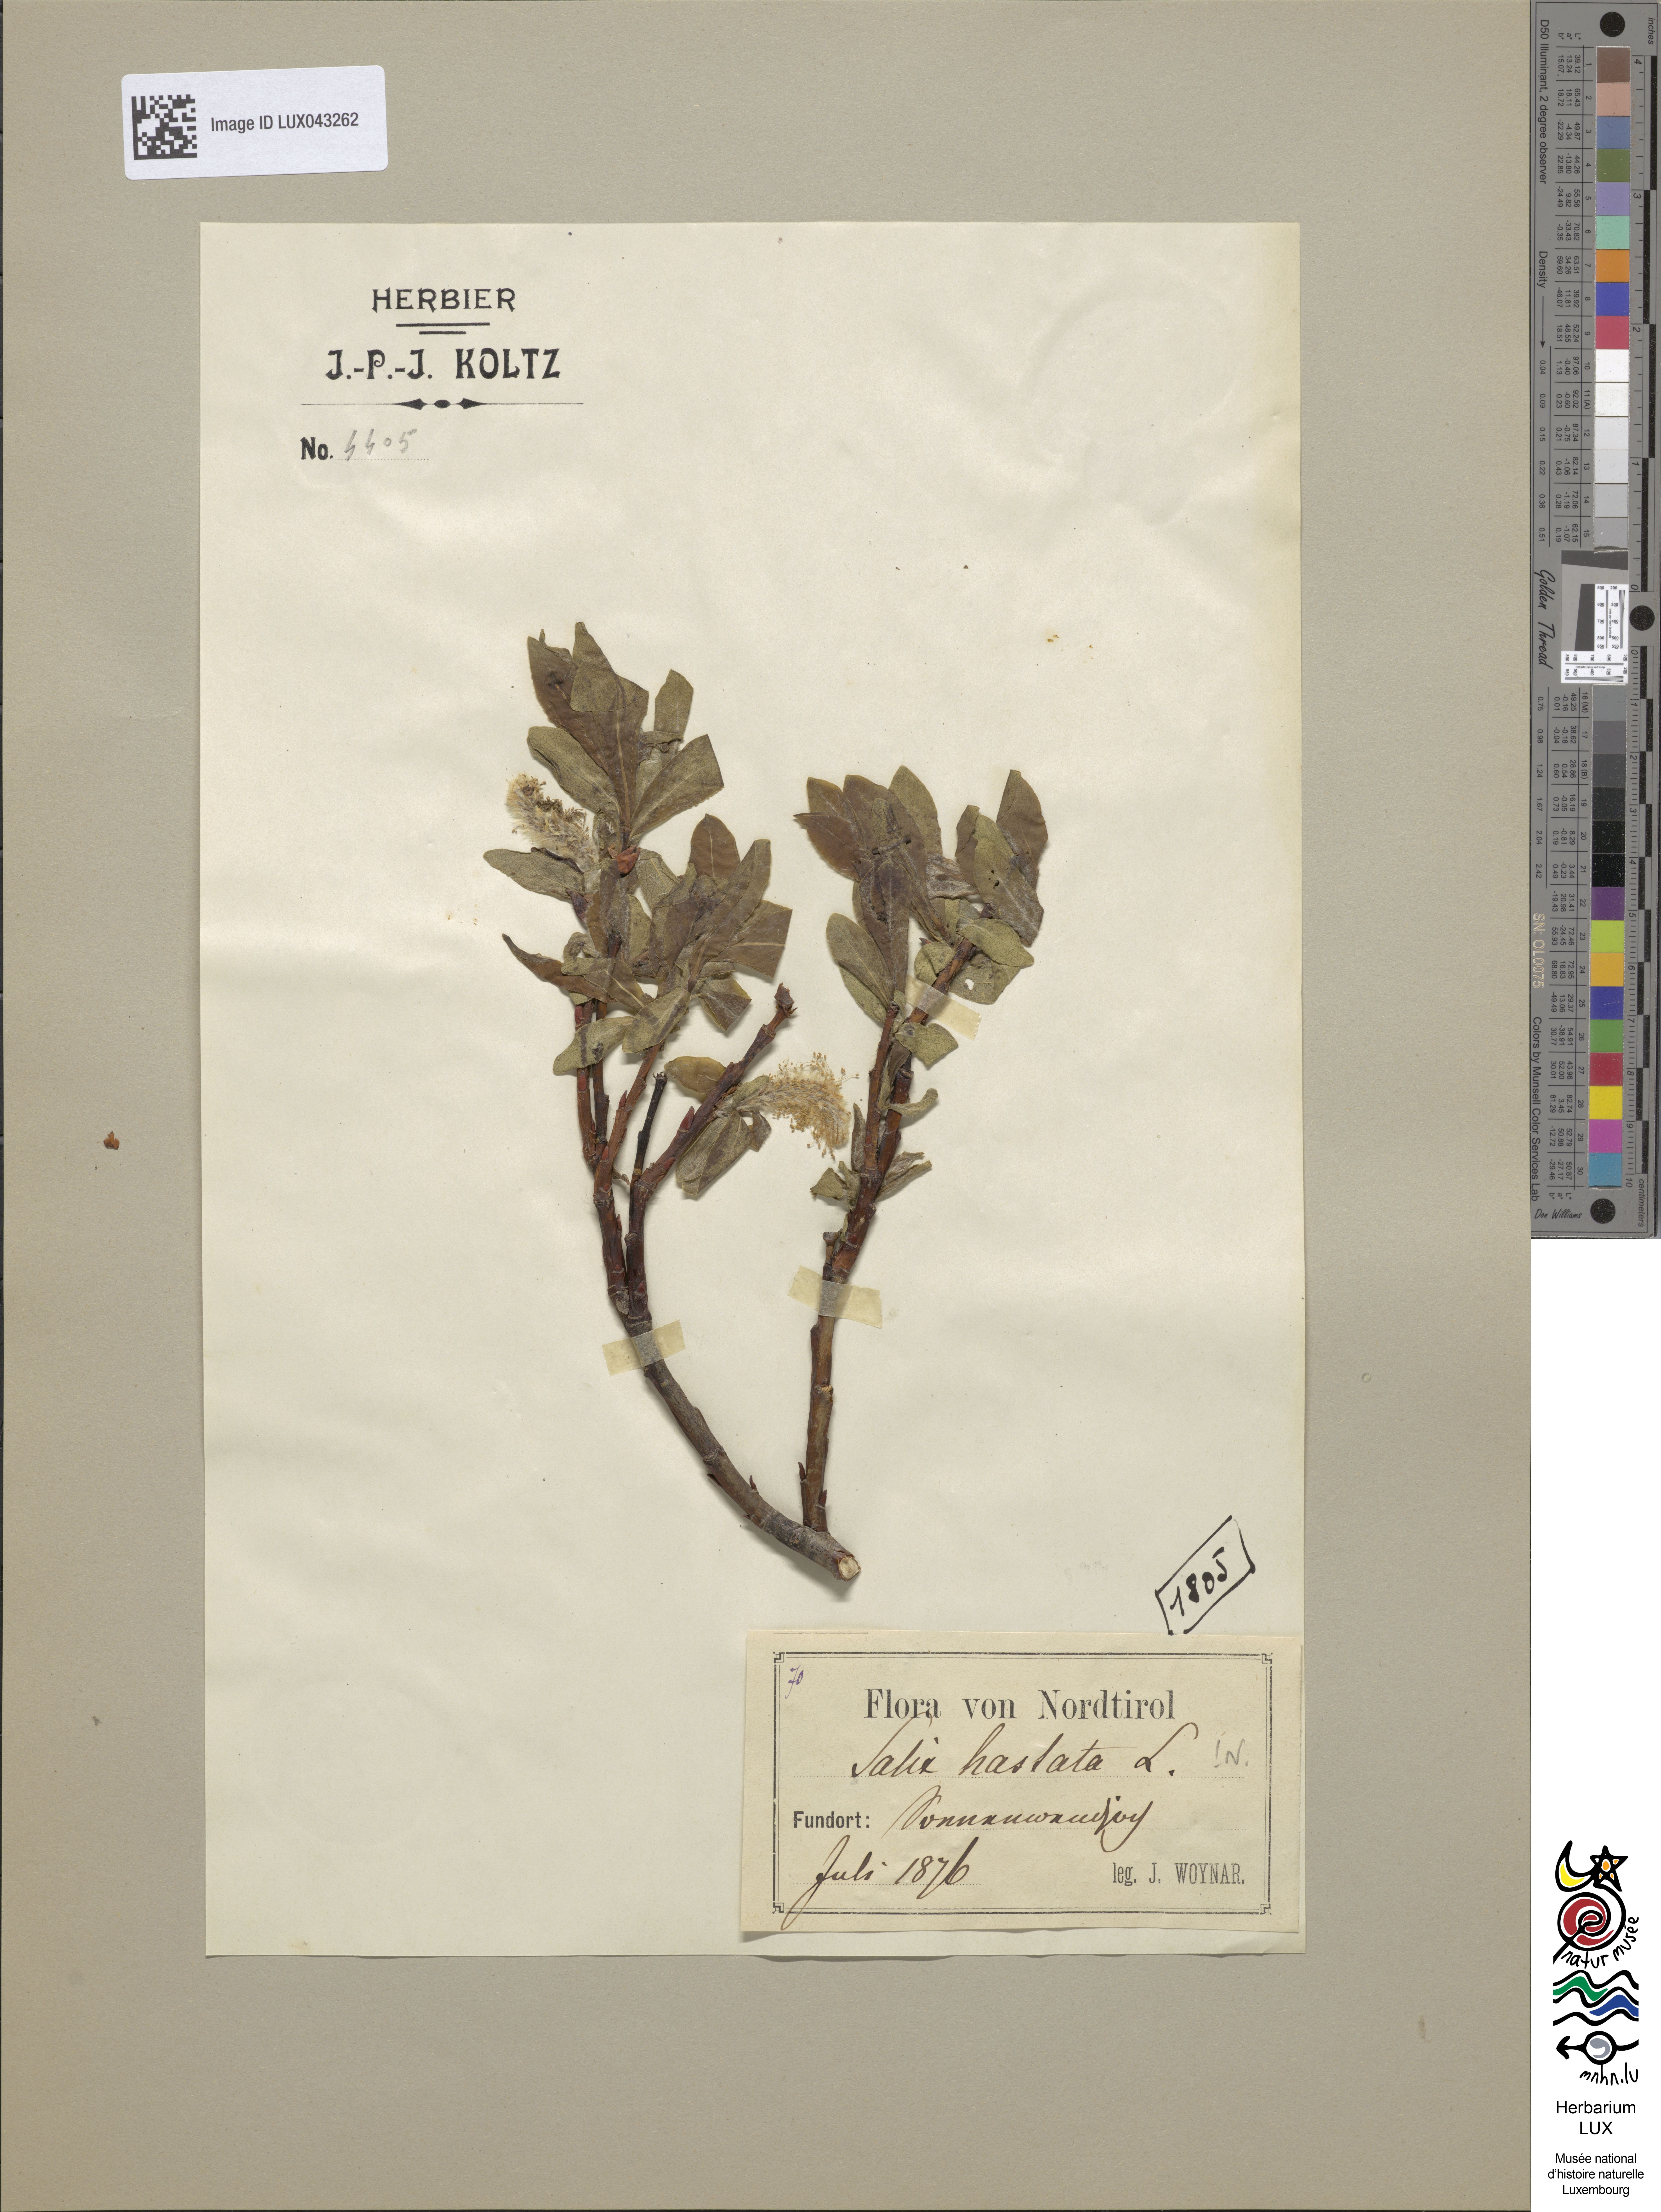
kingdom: Plantae
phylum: Tracheophyta
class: Magnoliopsida
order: Malpighiales
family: Salicaceae
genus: Salix
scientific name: Salix hastata
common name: Halberd willow
